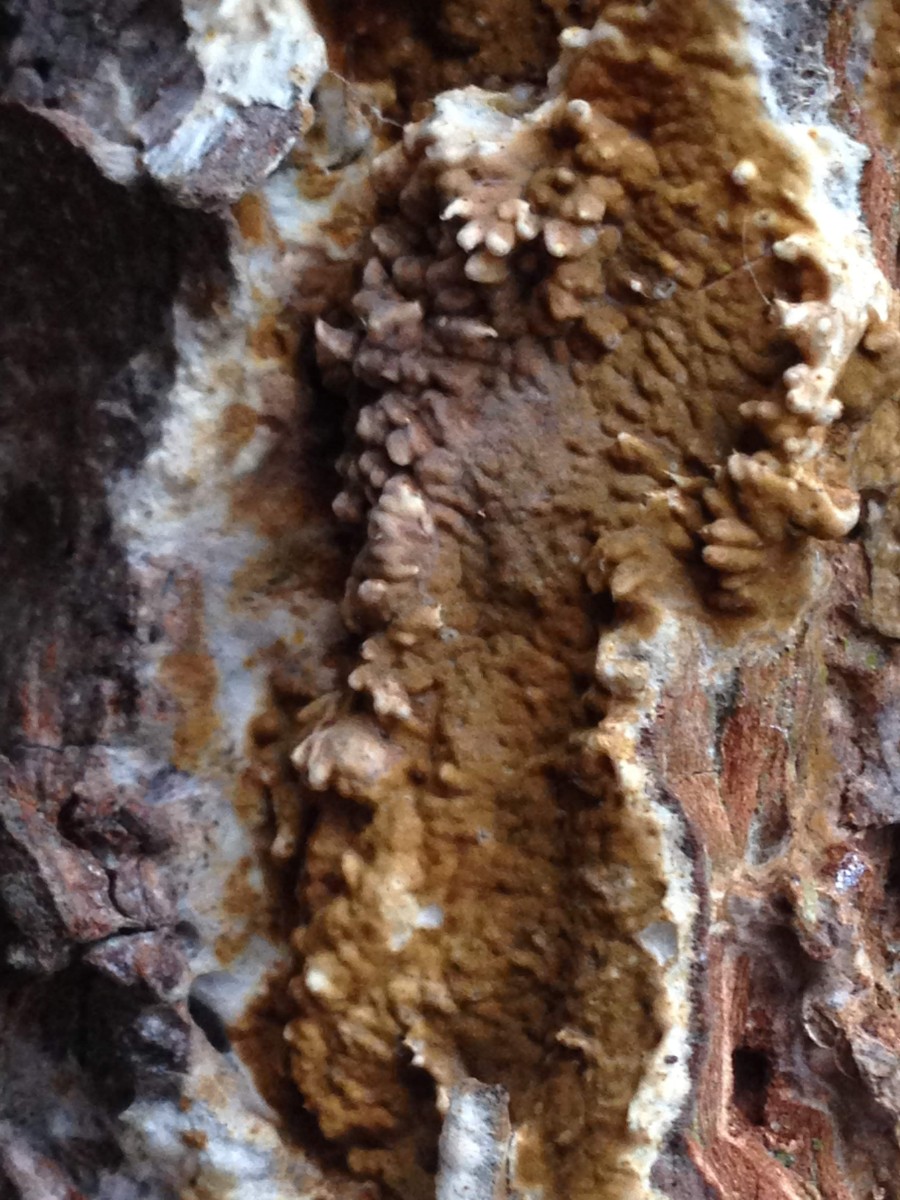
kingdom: Fungi
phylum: Basidiomycota
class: Agaricomycetes
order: Boletales
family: Coniophoraceae
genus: Coniophora
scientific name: Coniophora puteana
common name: gul tømmersvamp
